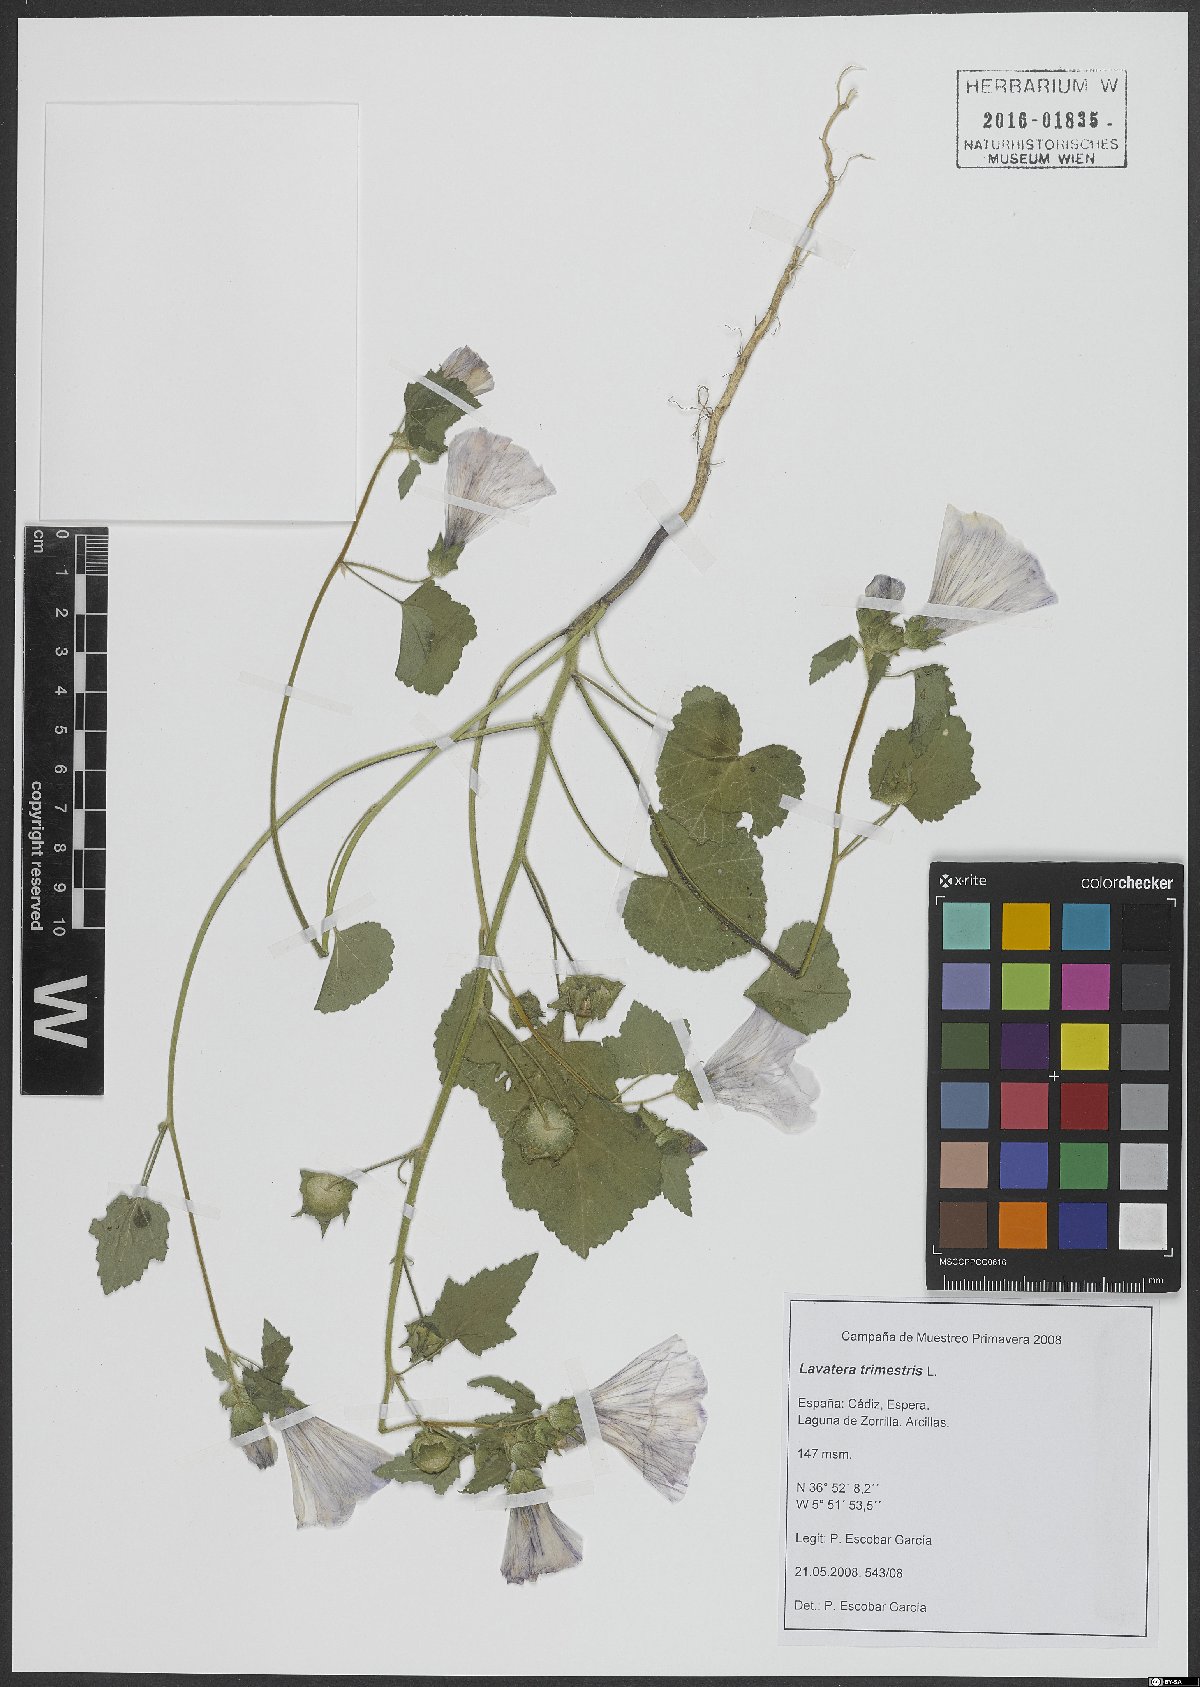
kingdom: Plantae
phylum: Tracheophyta
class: Magnoliopsida
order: Malvales
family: Malvaceae
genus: Malva
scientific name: Malva trimestris
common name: Royal mallow
